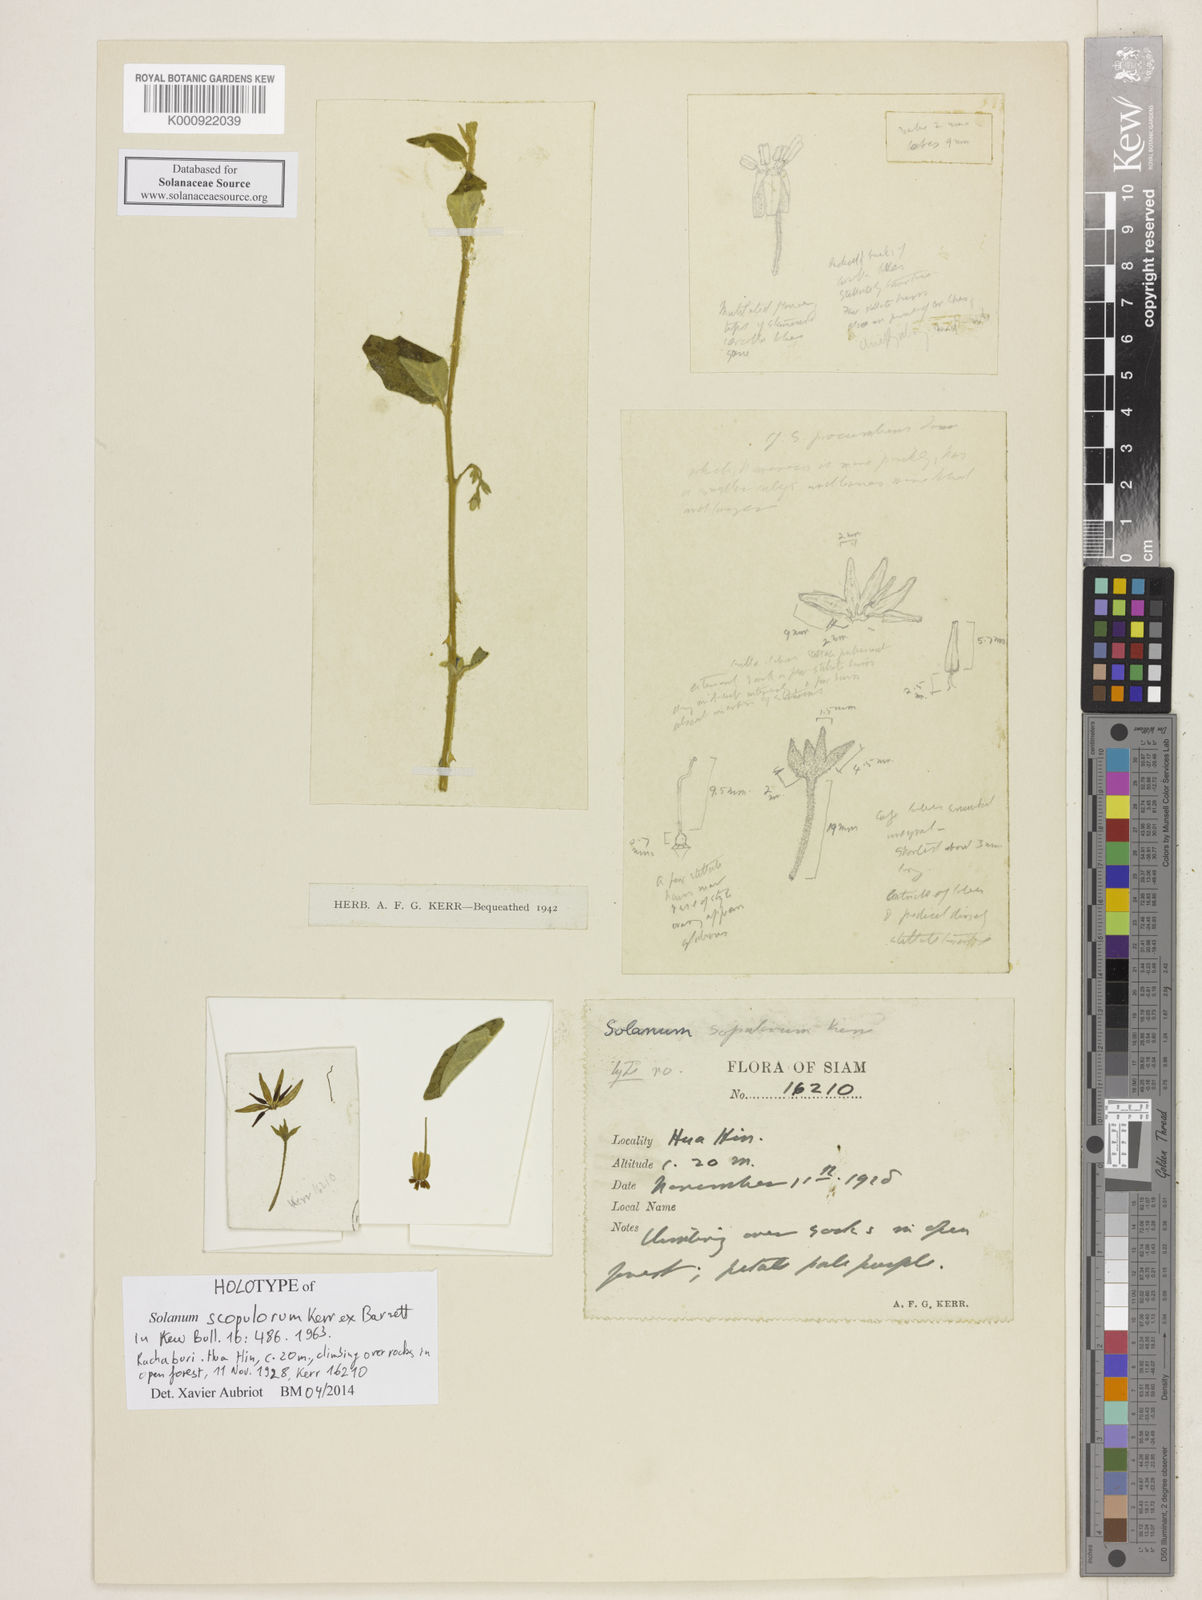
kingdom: Plantae
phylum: Tracheophyta
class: Magnoliopsida
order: Solanales
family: Solanaceae
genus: Solanum
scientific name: Solanum procumbens
